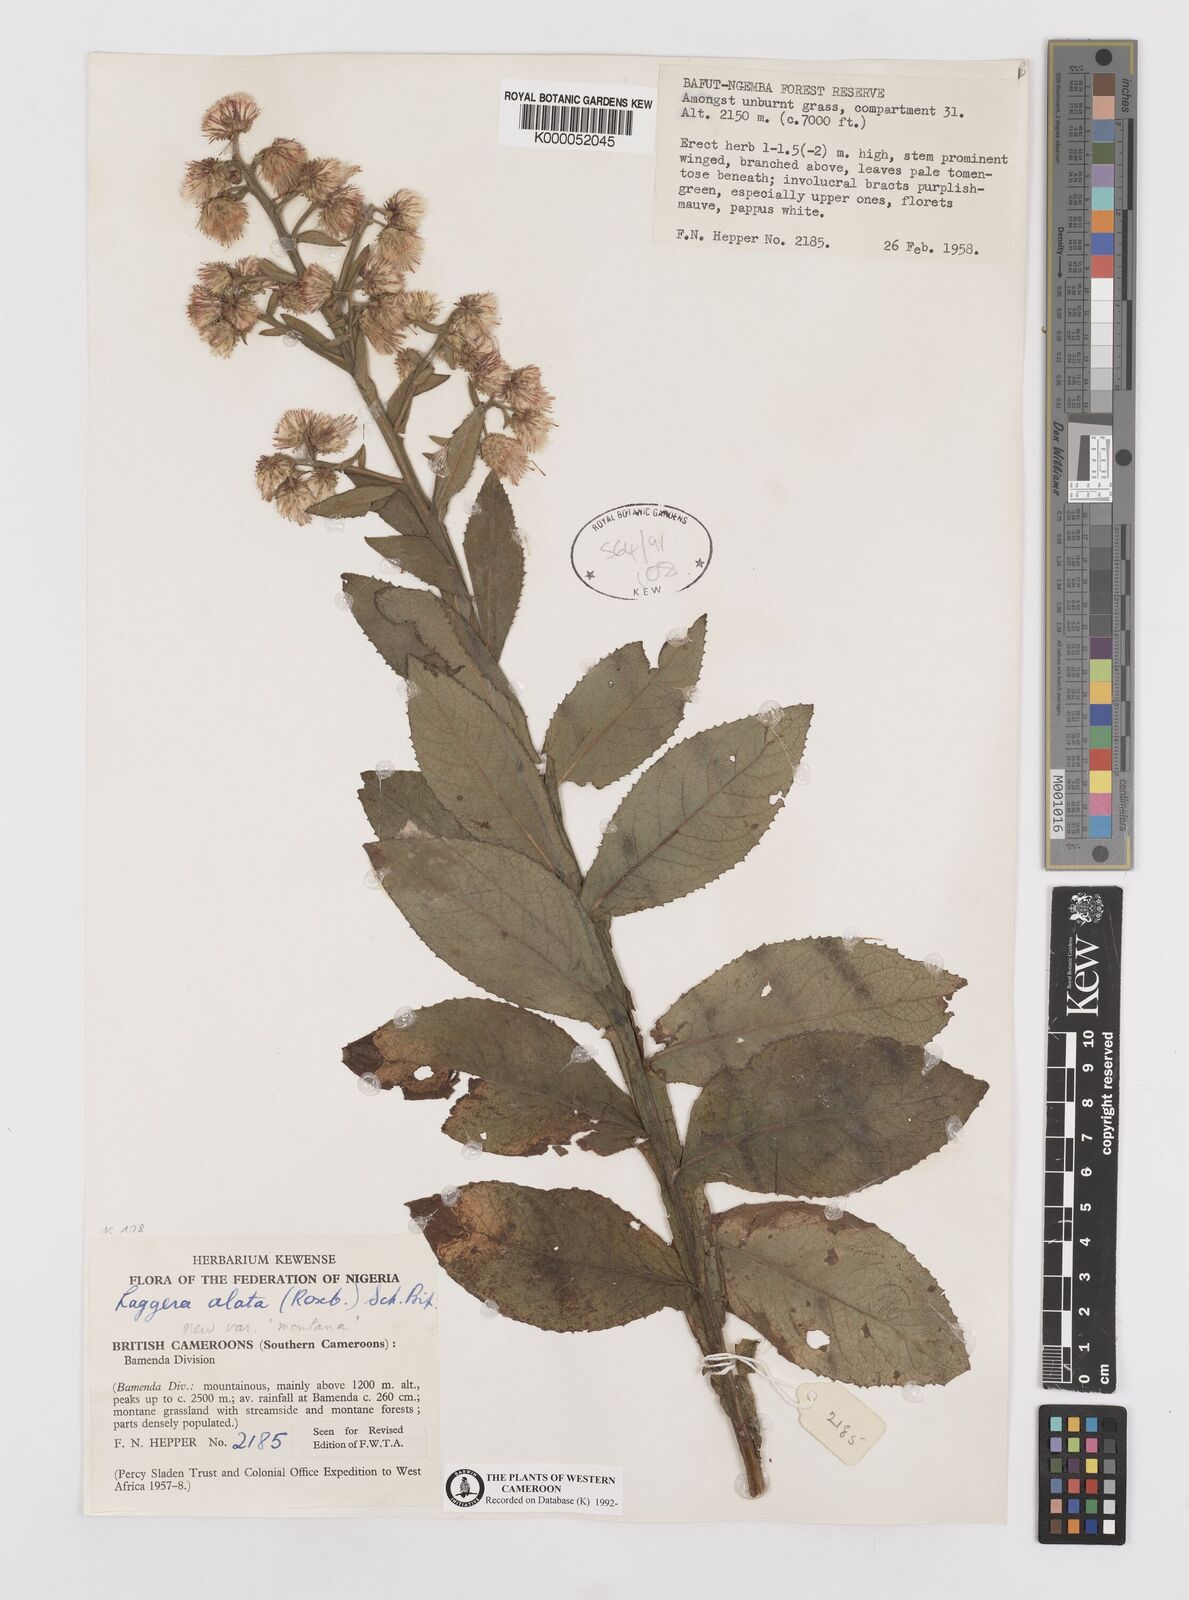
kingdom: Plantae
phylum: Tracheophyta
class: Magnoliopsida
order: Asterales
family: Asteraceae
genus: Laggera
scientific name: Laggera crispata
